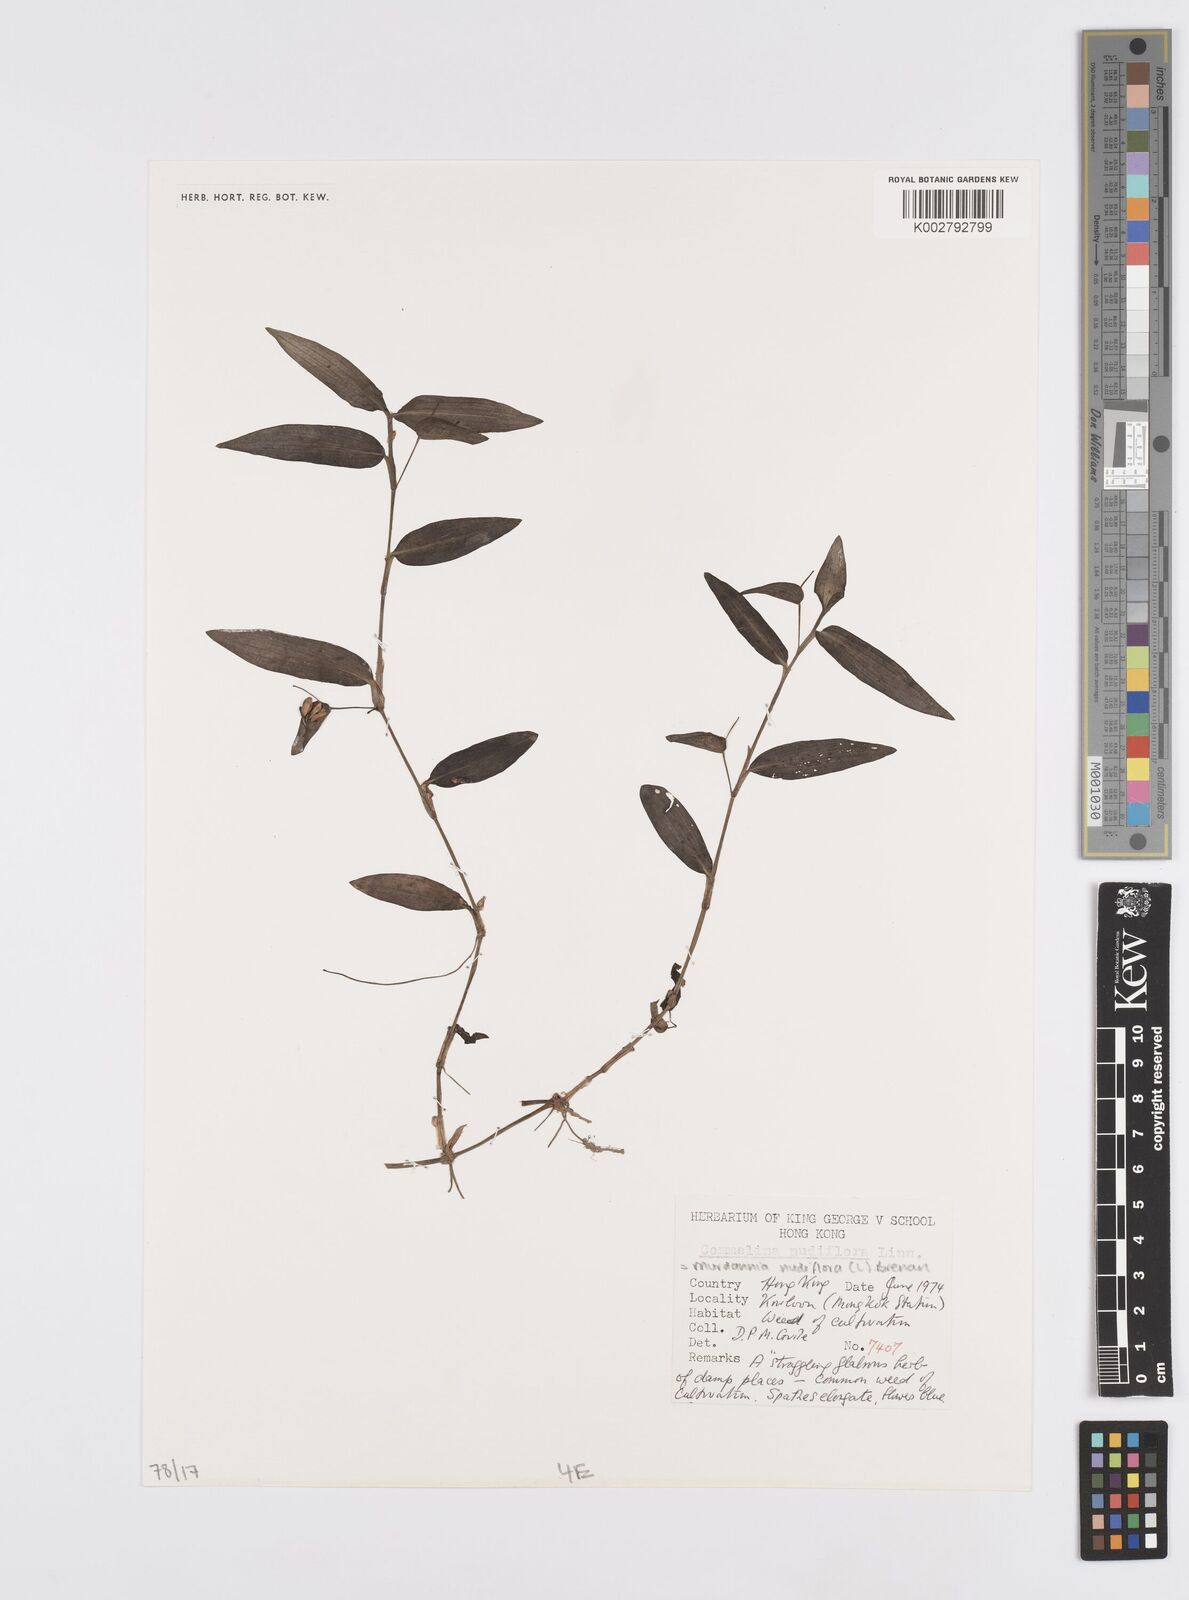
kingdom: Plantae
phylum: Tracheophyta
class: Liliopsida
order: Commelinales
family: Commelinaceae
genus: Murdannia
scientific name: Murdannia nudiflora
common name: Nakedstem dewflower
